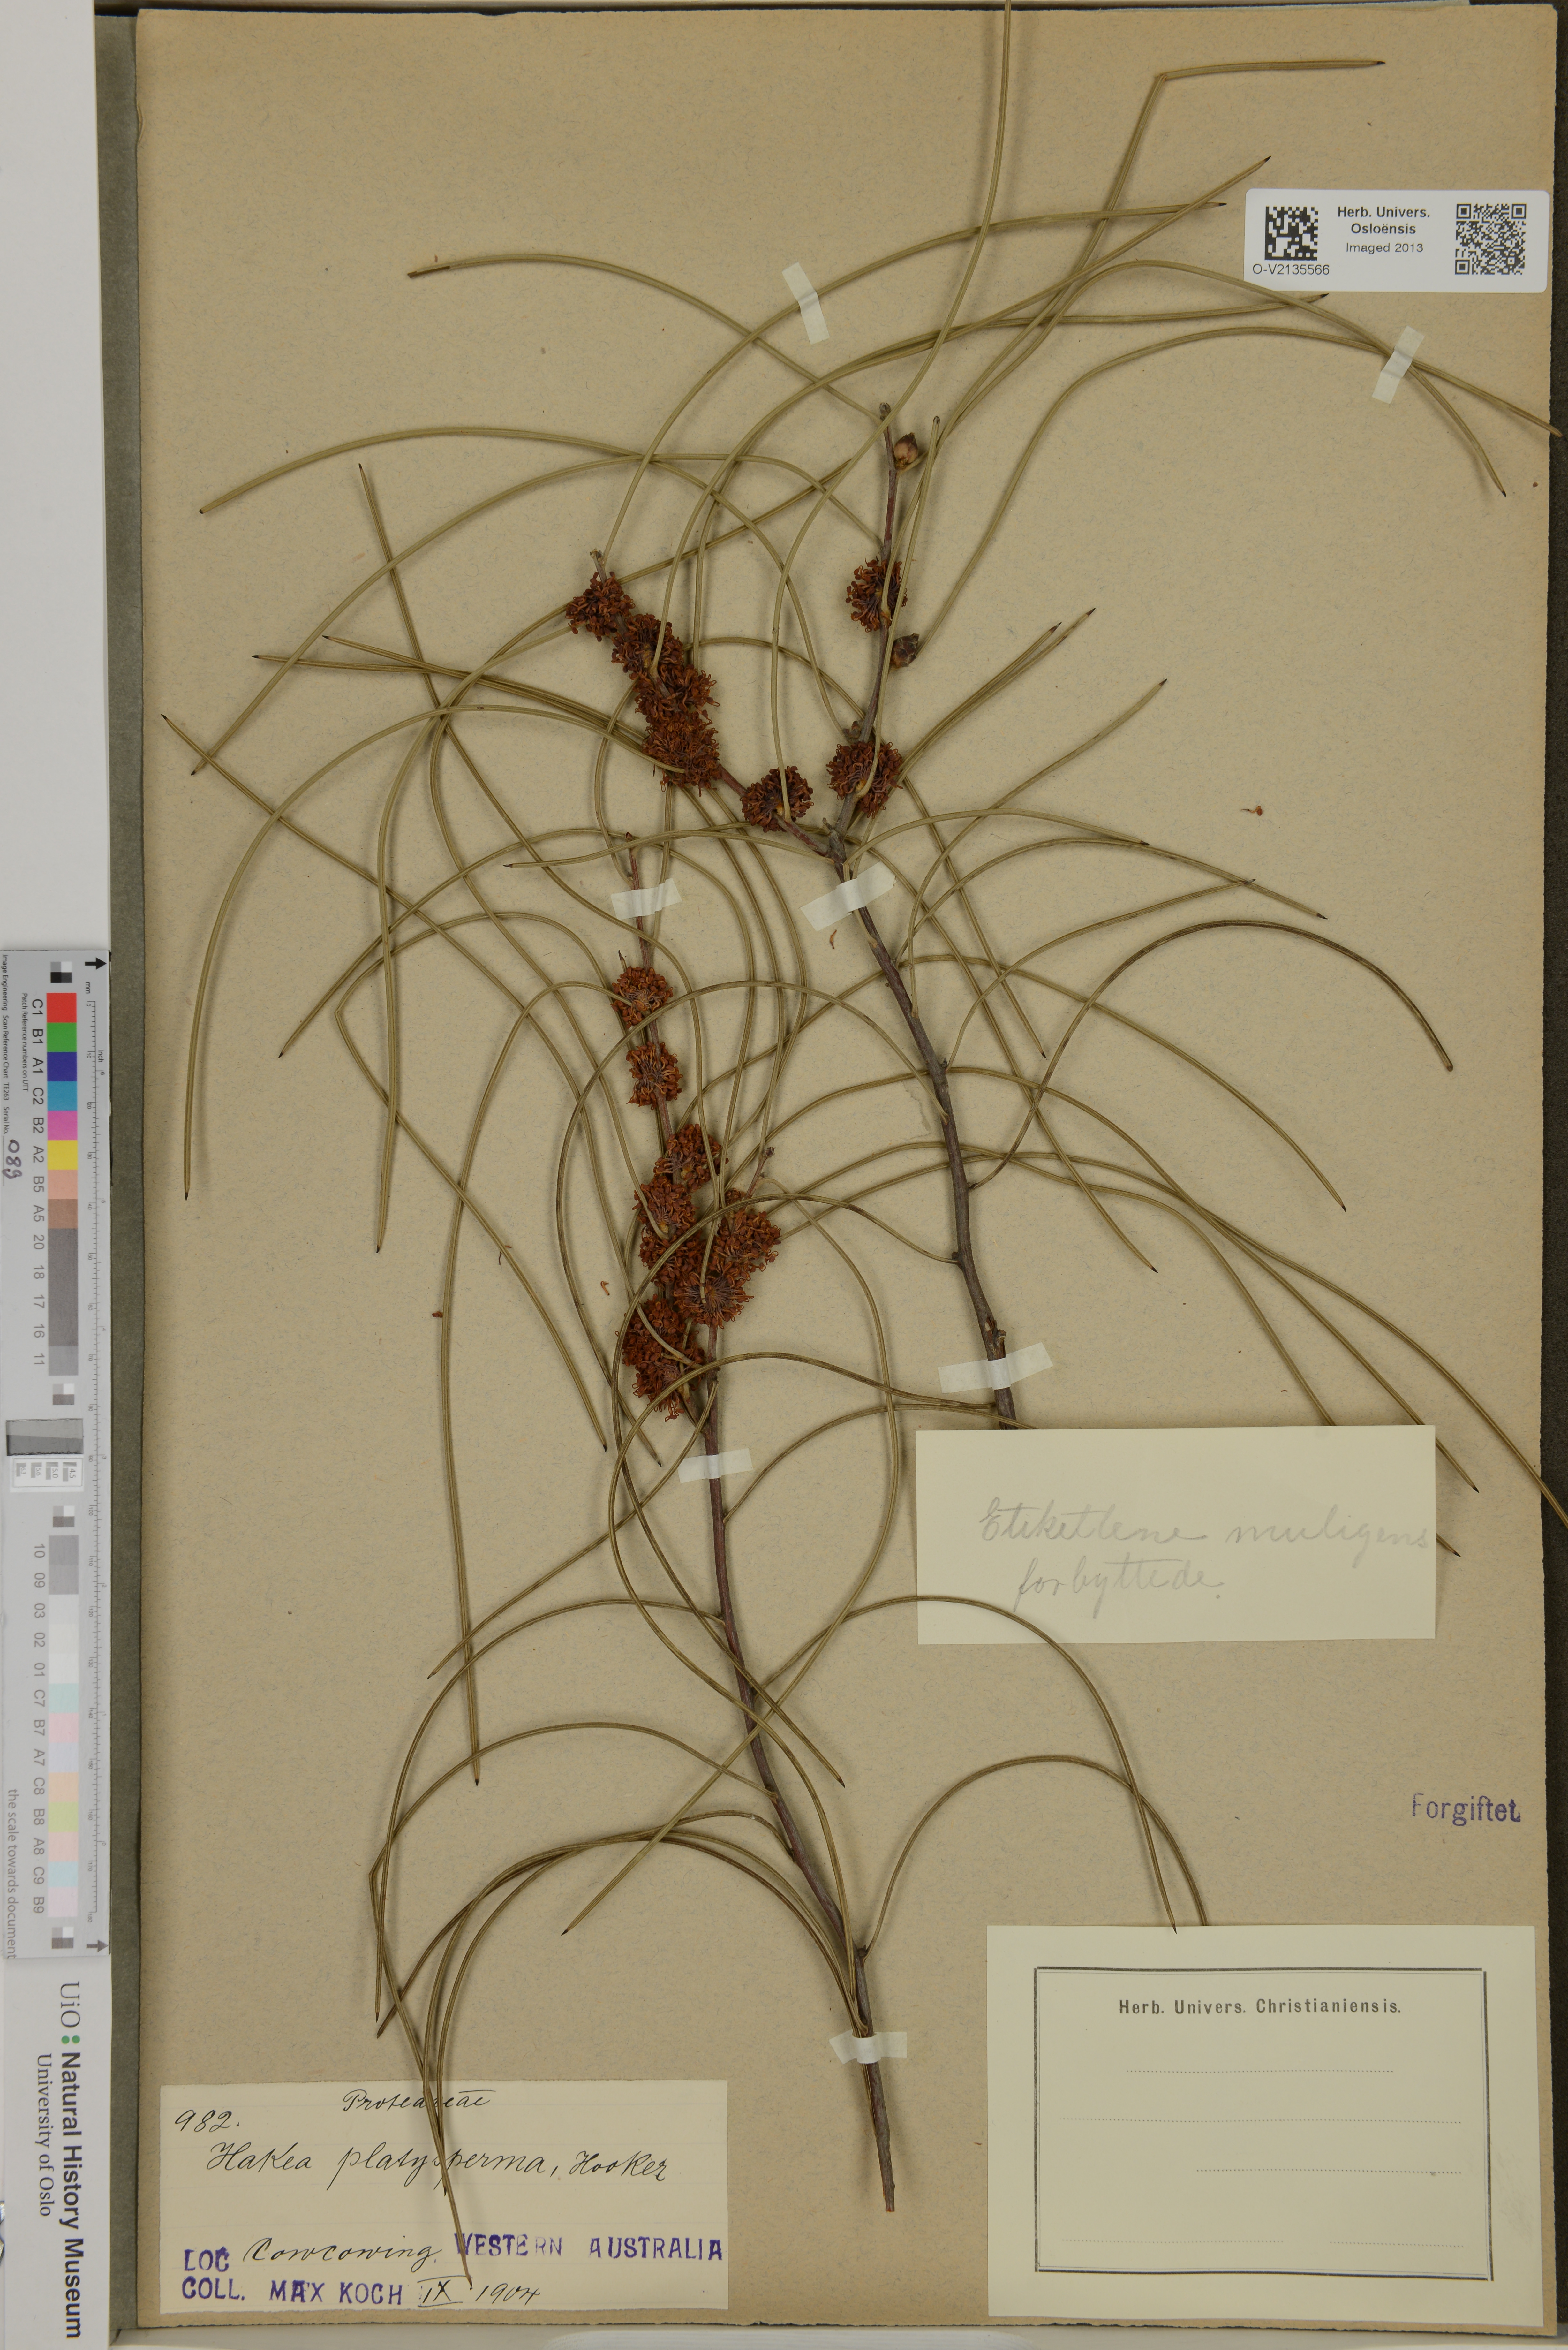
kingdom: Plantae
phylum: Tracheophyta
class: Magnoliopsida
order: Proteales
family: Proteaceae
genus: Hakea
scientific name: Hakea platysperma
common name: Cricket-ball hakea
